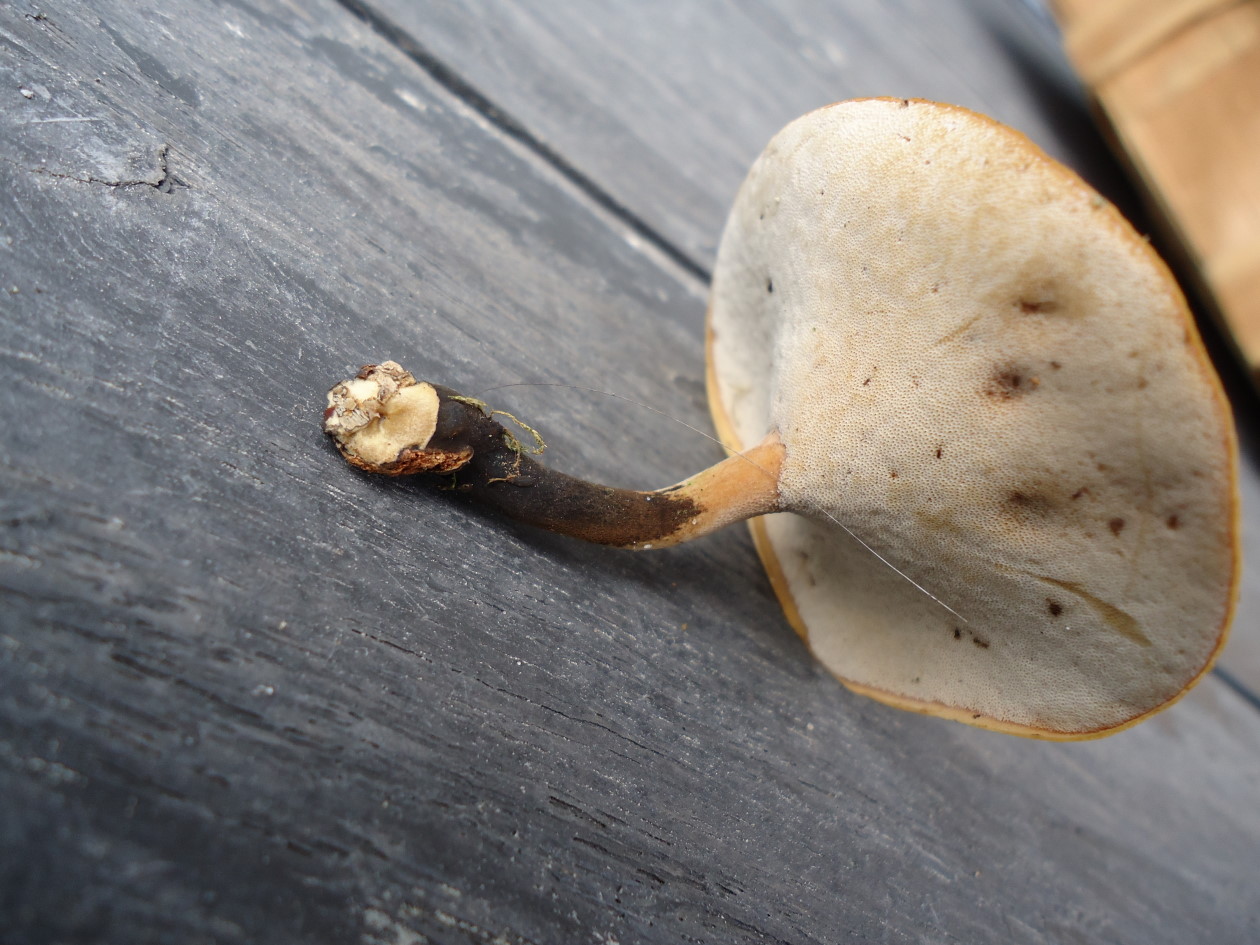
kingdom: Fungi
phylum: Basidiomycota
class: Agaricomycetes
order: Polyporales
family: Polyporaceae
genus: Cerioporus
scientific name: Cerioporus varius
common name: foranderlig stilkporesvamp
